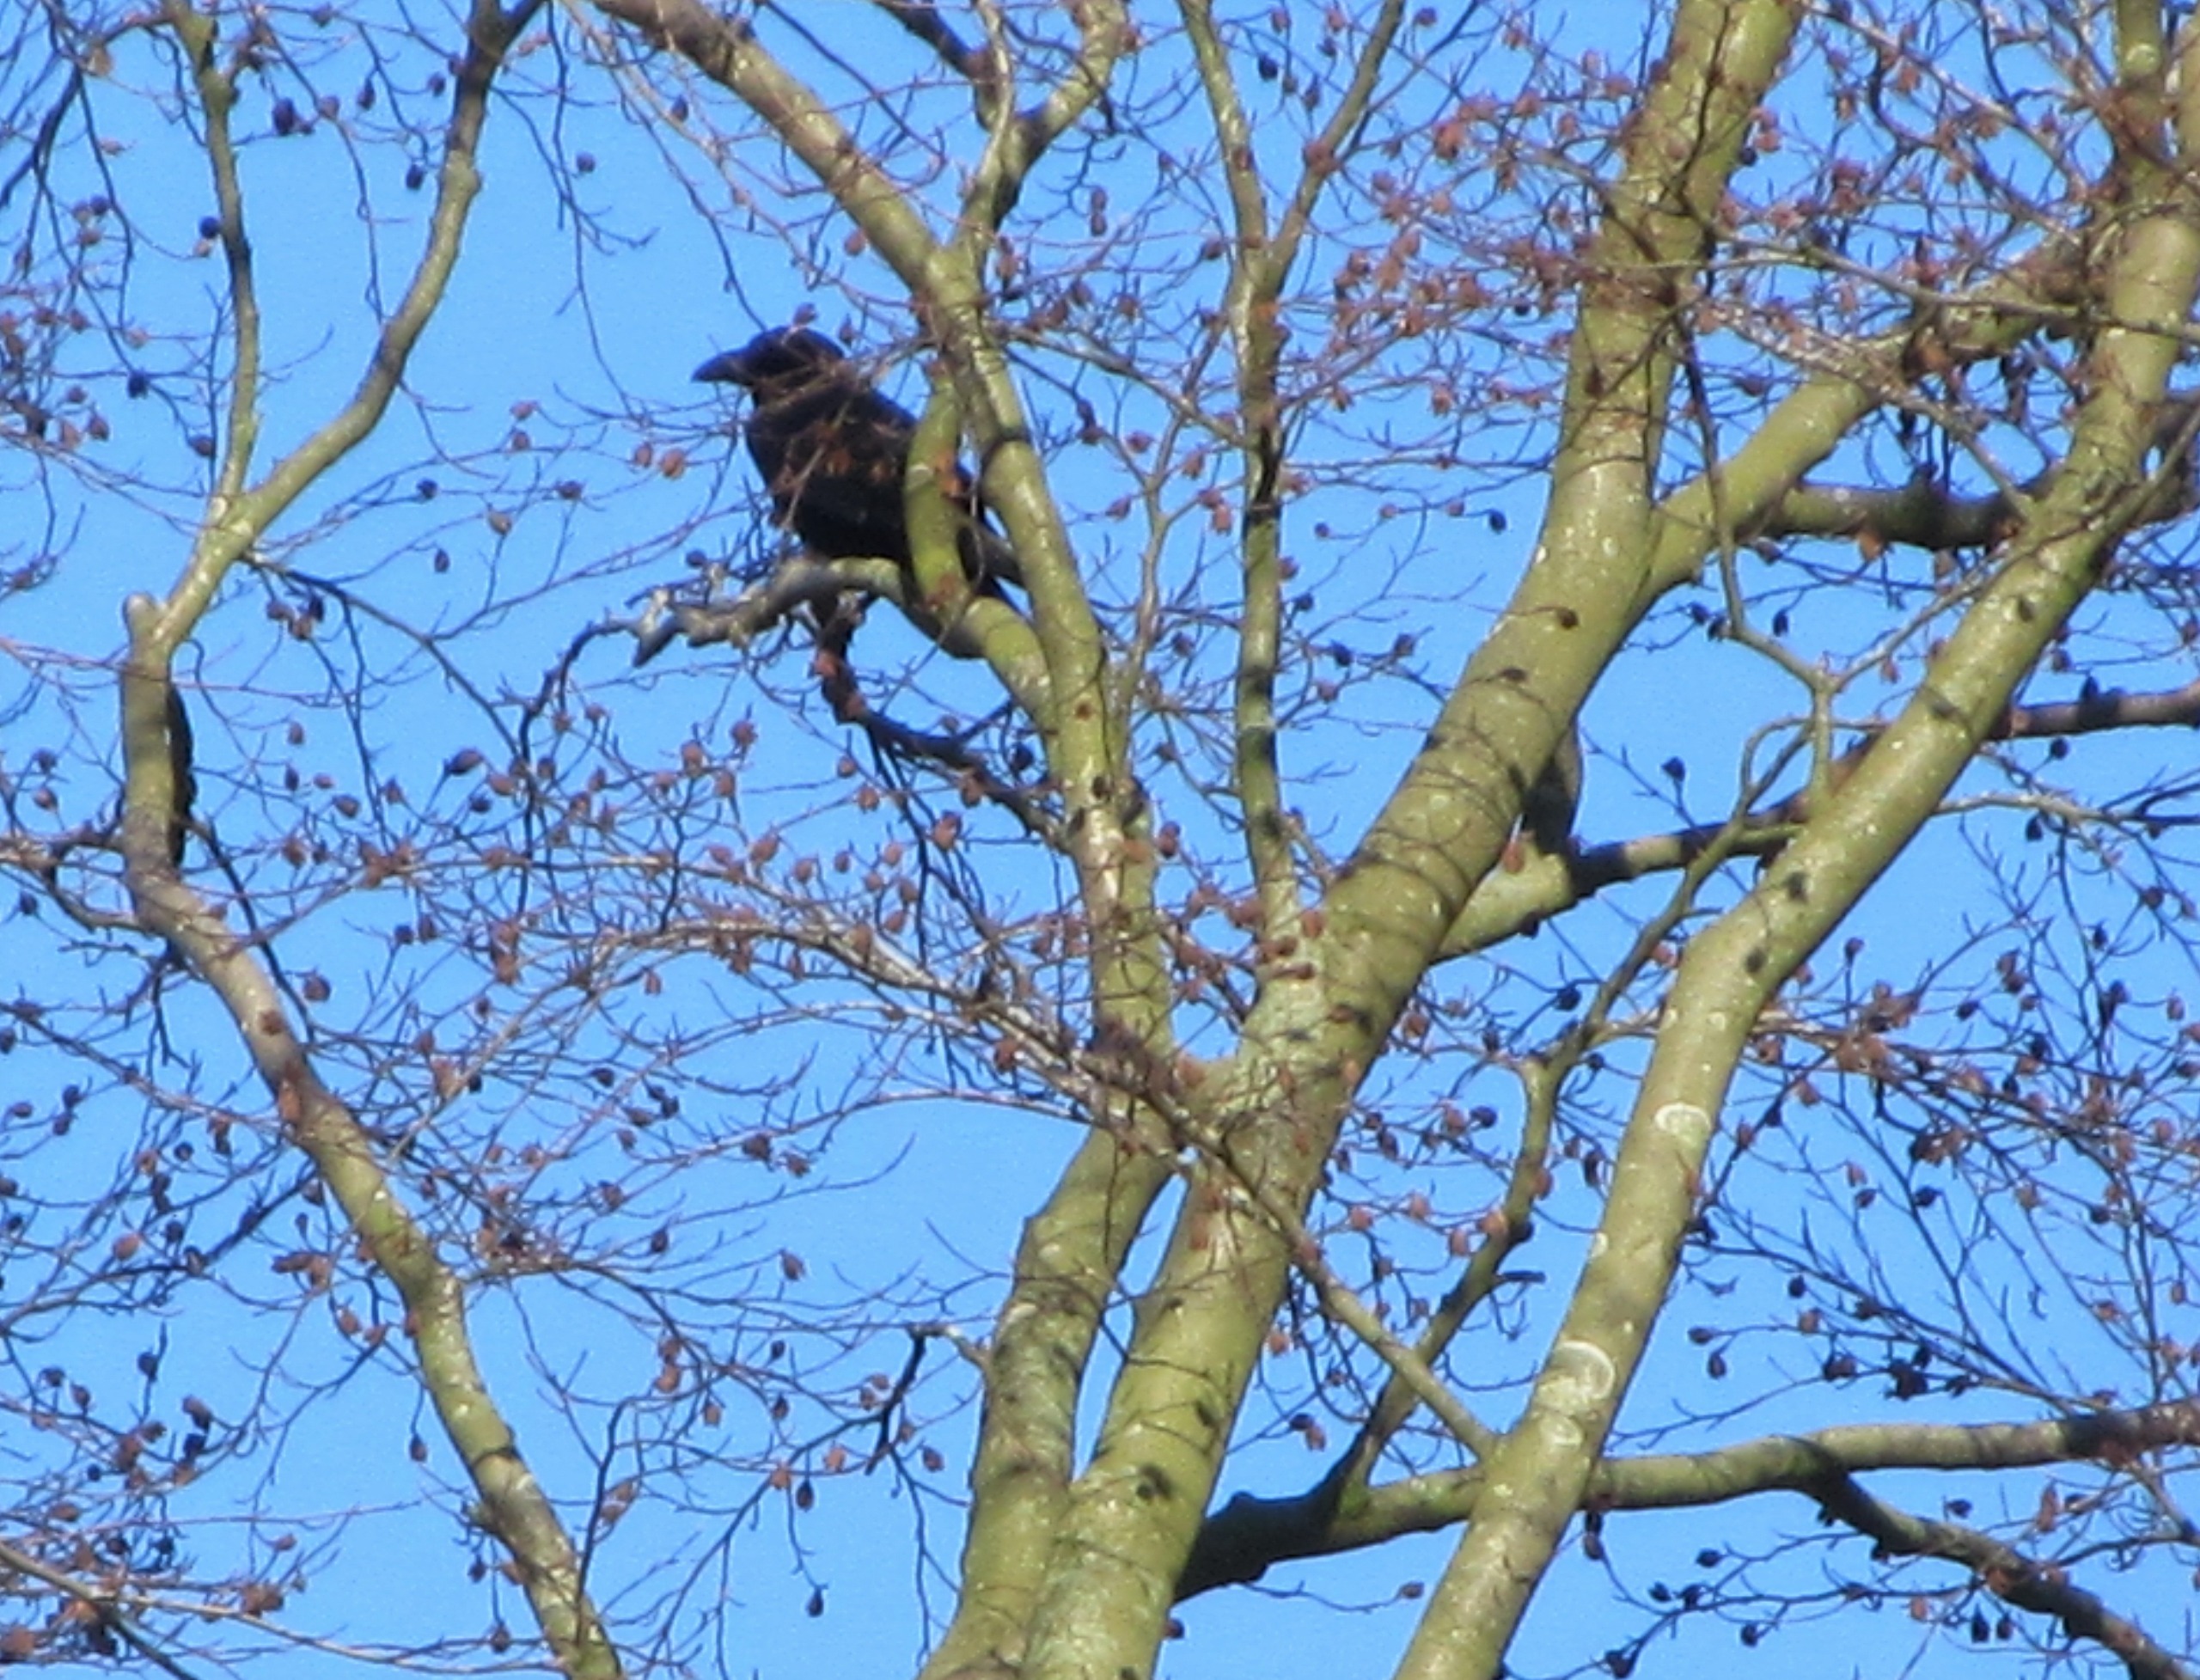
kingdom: Animalia
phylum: Chordata
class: Aves
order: Passeriformes
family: Corvidae
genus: Corvus
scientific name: Corvus corax
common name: Ravn
